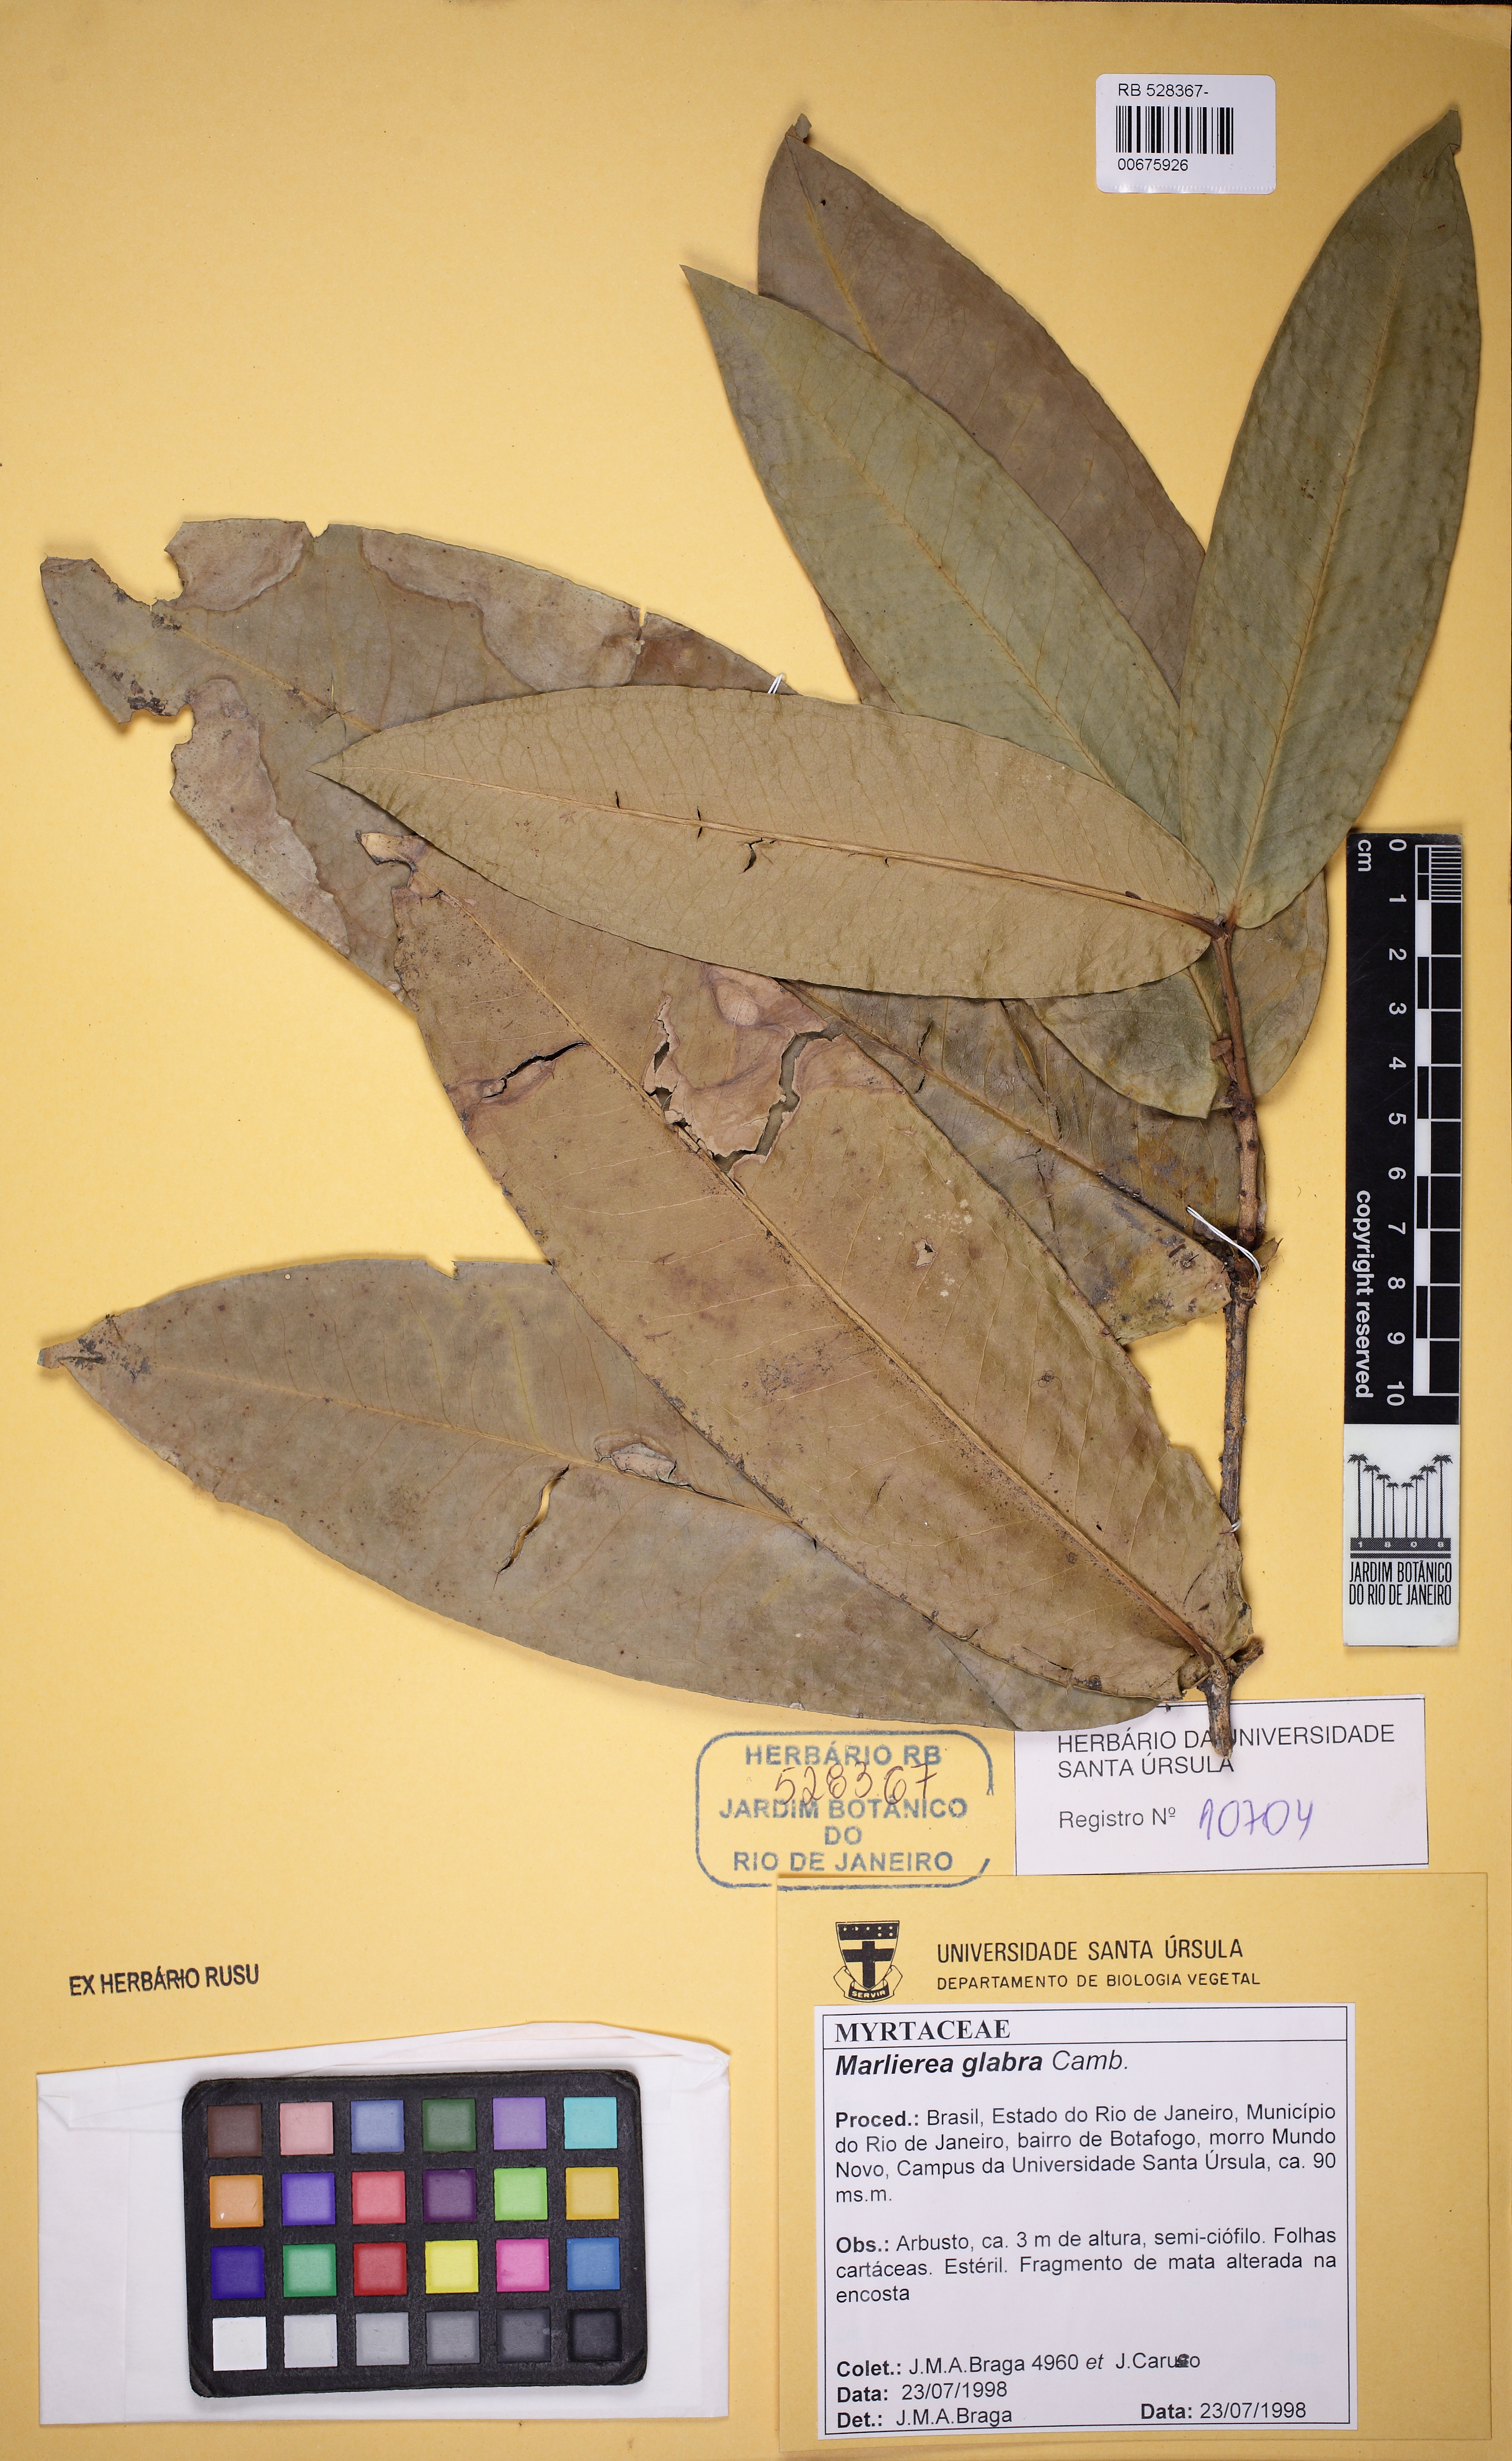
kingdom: Plantae
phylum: Tracheophyta
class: Magnoliopsida
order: Myrtales
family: Myrtaceae
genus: Eugenia
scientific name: Eugenia grandifolia
